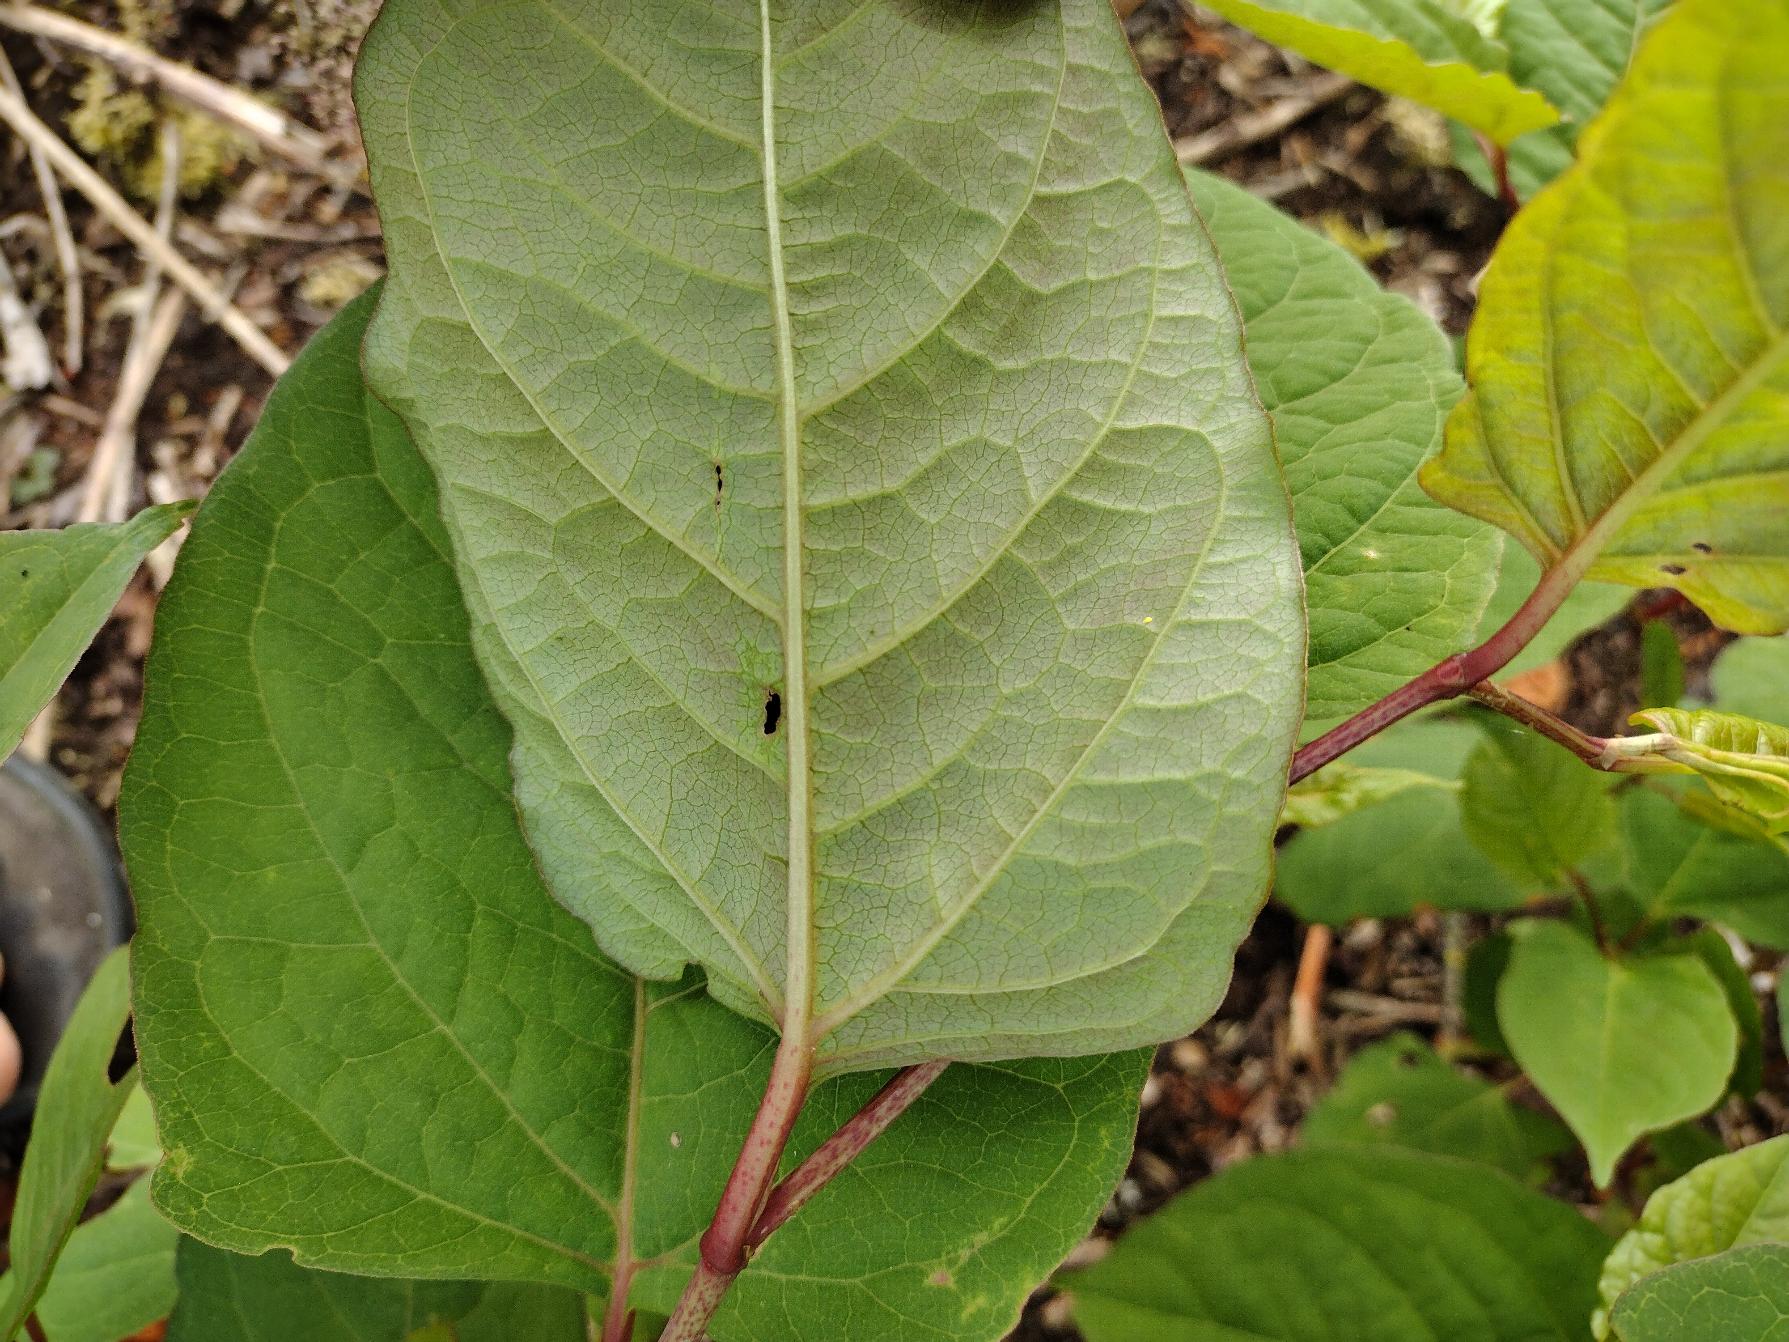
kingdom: Plantae
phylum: Tracheophyta
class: Magnoliopsida
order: Caryophyllales
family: Polygonaceae
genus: Reynoutria
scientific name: Reynoutria japonica
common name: Japan-pileurt
